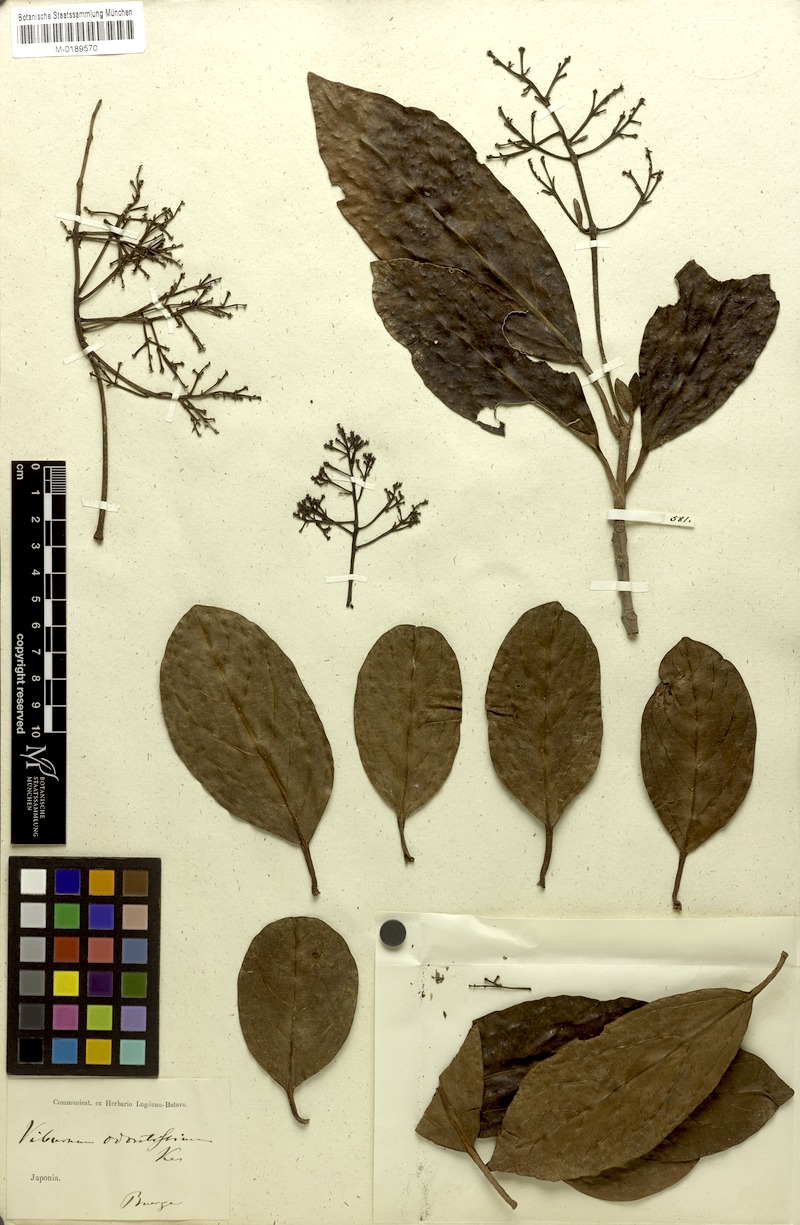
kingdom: Plantae
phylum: Tracheophyta
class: Magnoliopsida
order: Dipsacales
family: Viburnaceae
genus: Viburnum
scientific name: Viburnum odoratissimum
